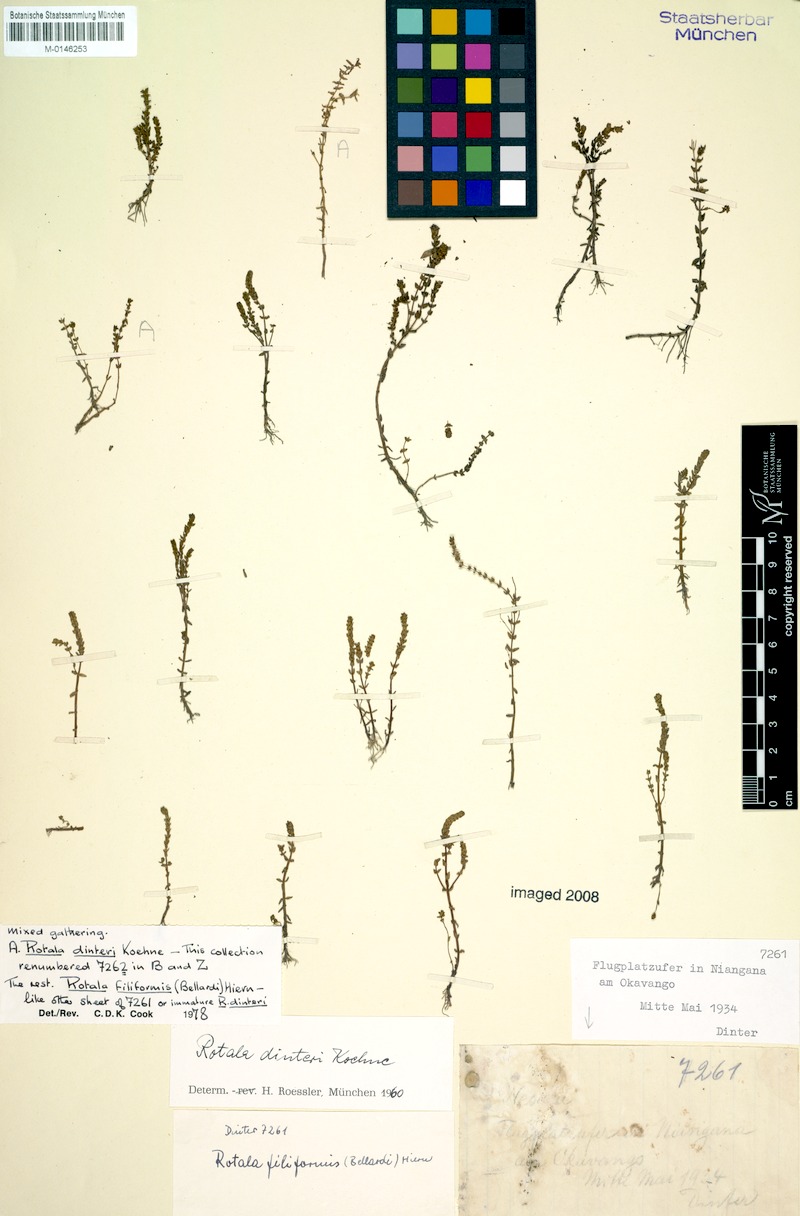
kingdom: Plantae
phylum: Tracheophyta
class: Magnoliopsida
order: Myrtales
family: Lythraceae
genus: Rotala
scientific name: Rotala dinteri
